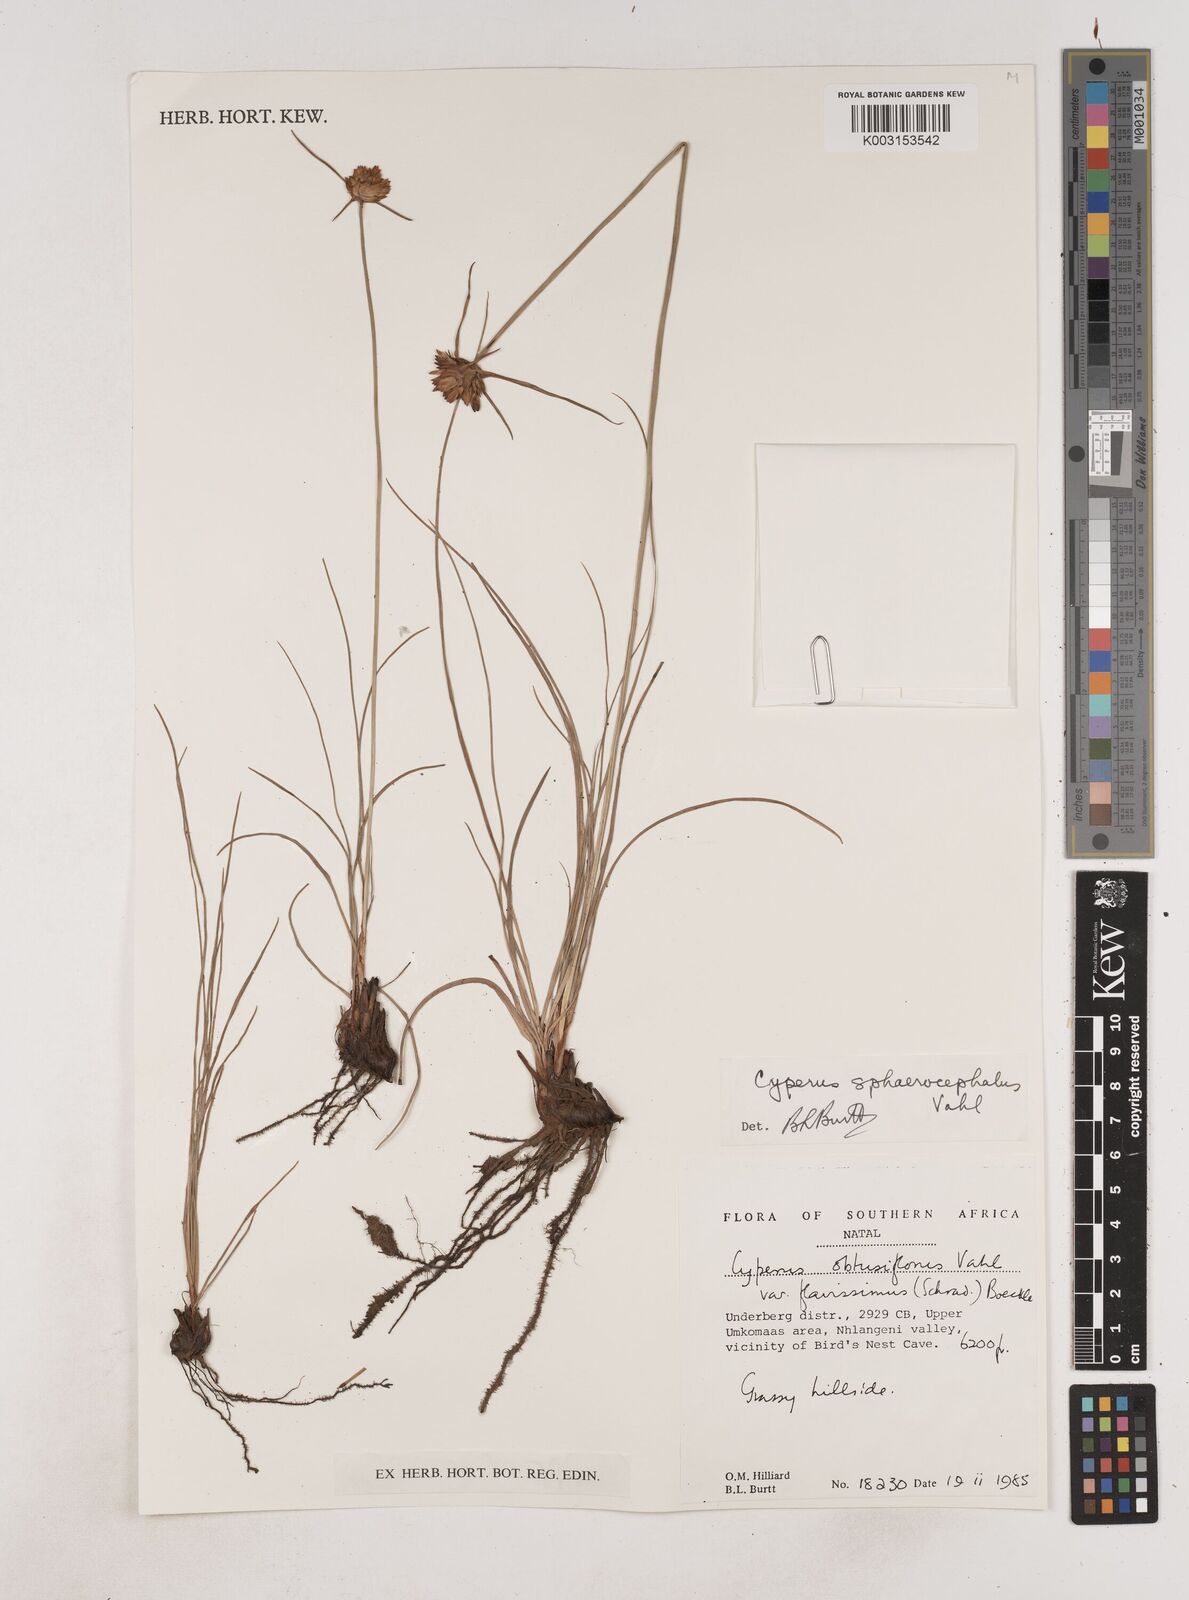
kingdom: Plantae
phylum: Tracheophyta
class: Liliopsida
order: Poales
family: Cyperaceae
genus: Cyperus
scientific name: Cyperus niveus
